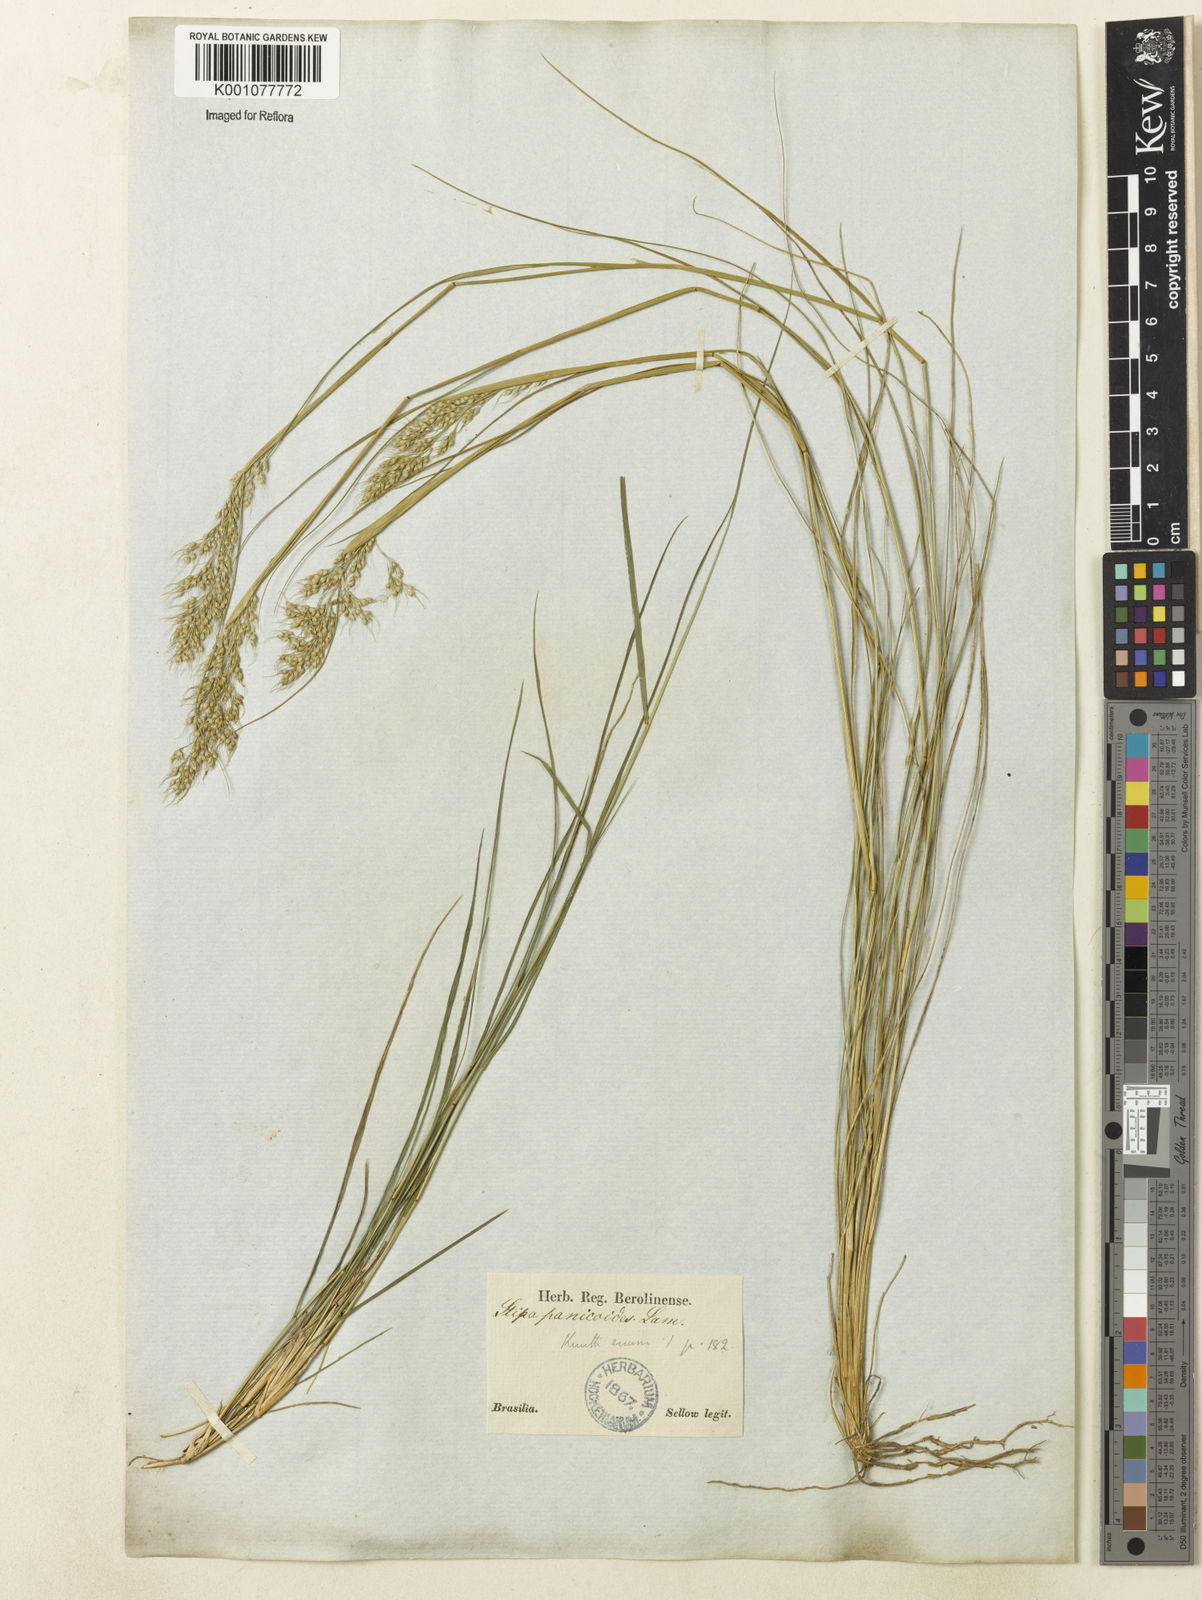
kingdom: Plantae
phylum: Tracheophyta
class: Liliopsida
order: Poales
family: Poaceae
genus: Piptochaetium
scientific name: Piptochaetium montevidense
